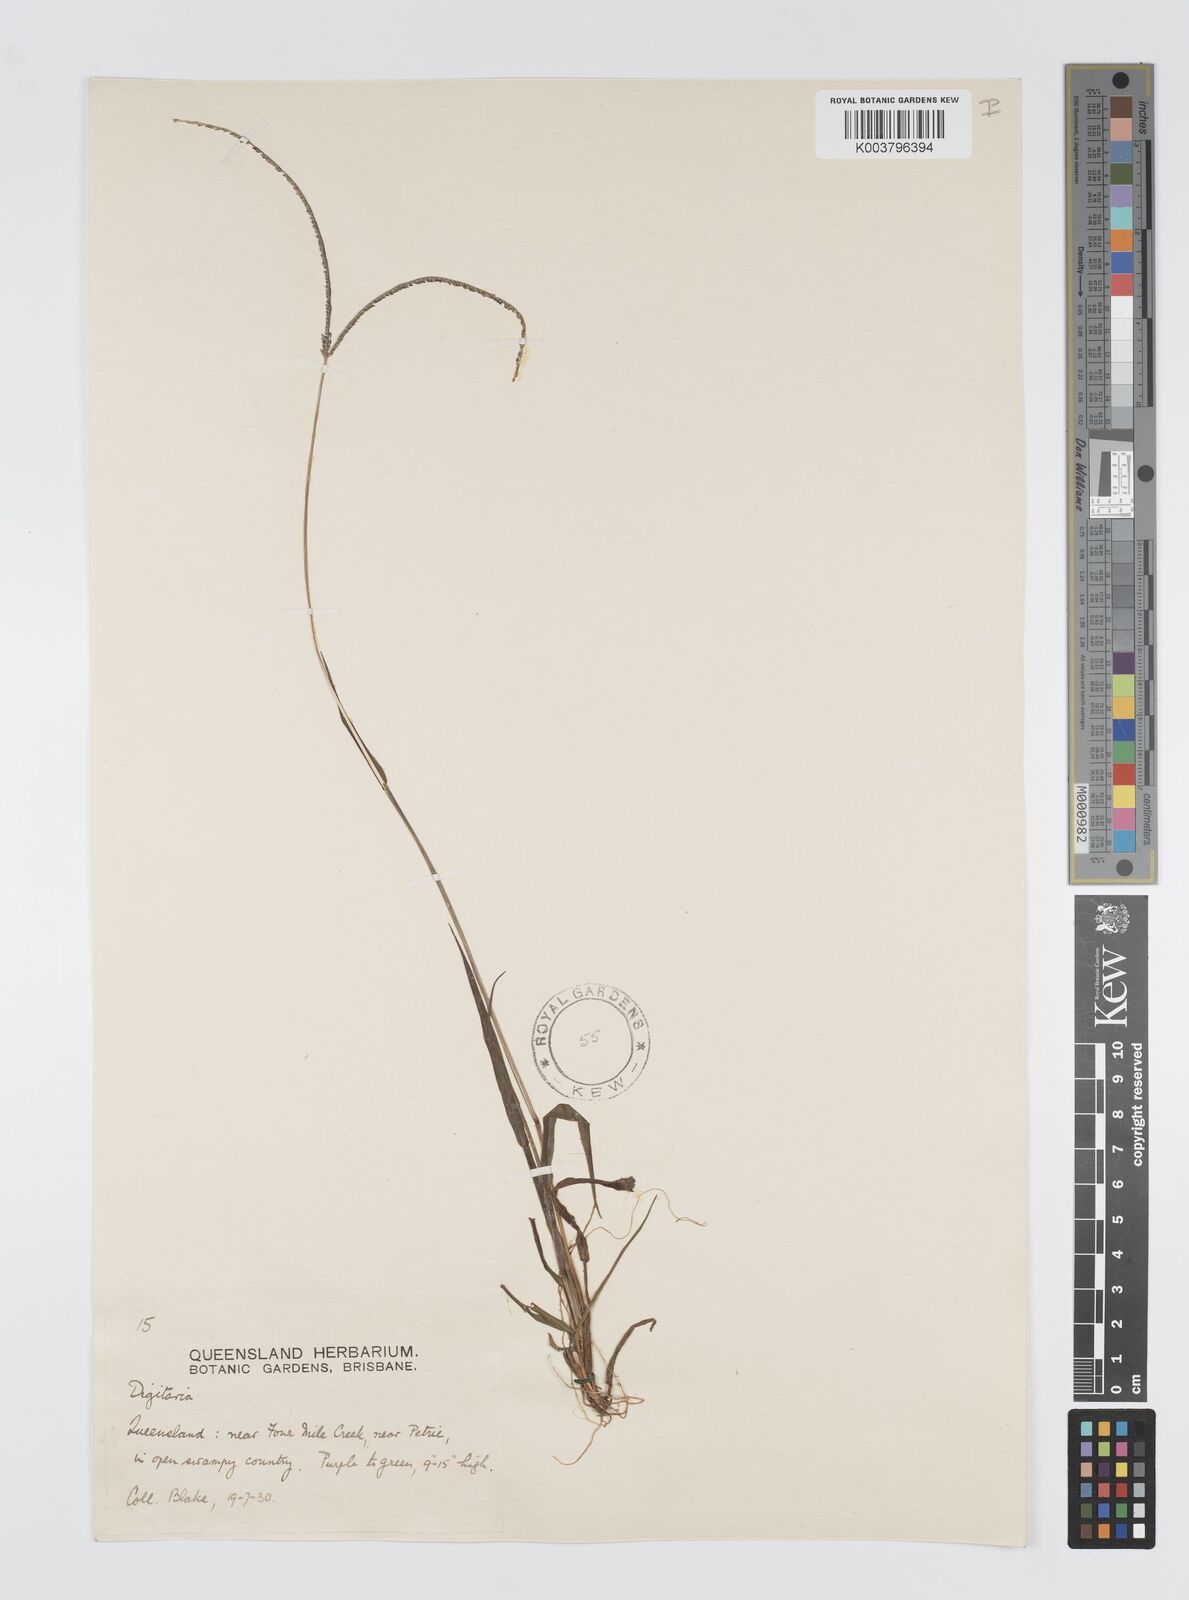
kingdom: Plantae
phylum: Tracheophyta
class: Liliopsida
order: Poales
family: Poaceae
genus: Digitaria
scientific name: Digitaria violascens
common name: Violet crabgrass
